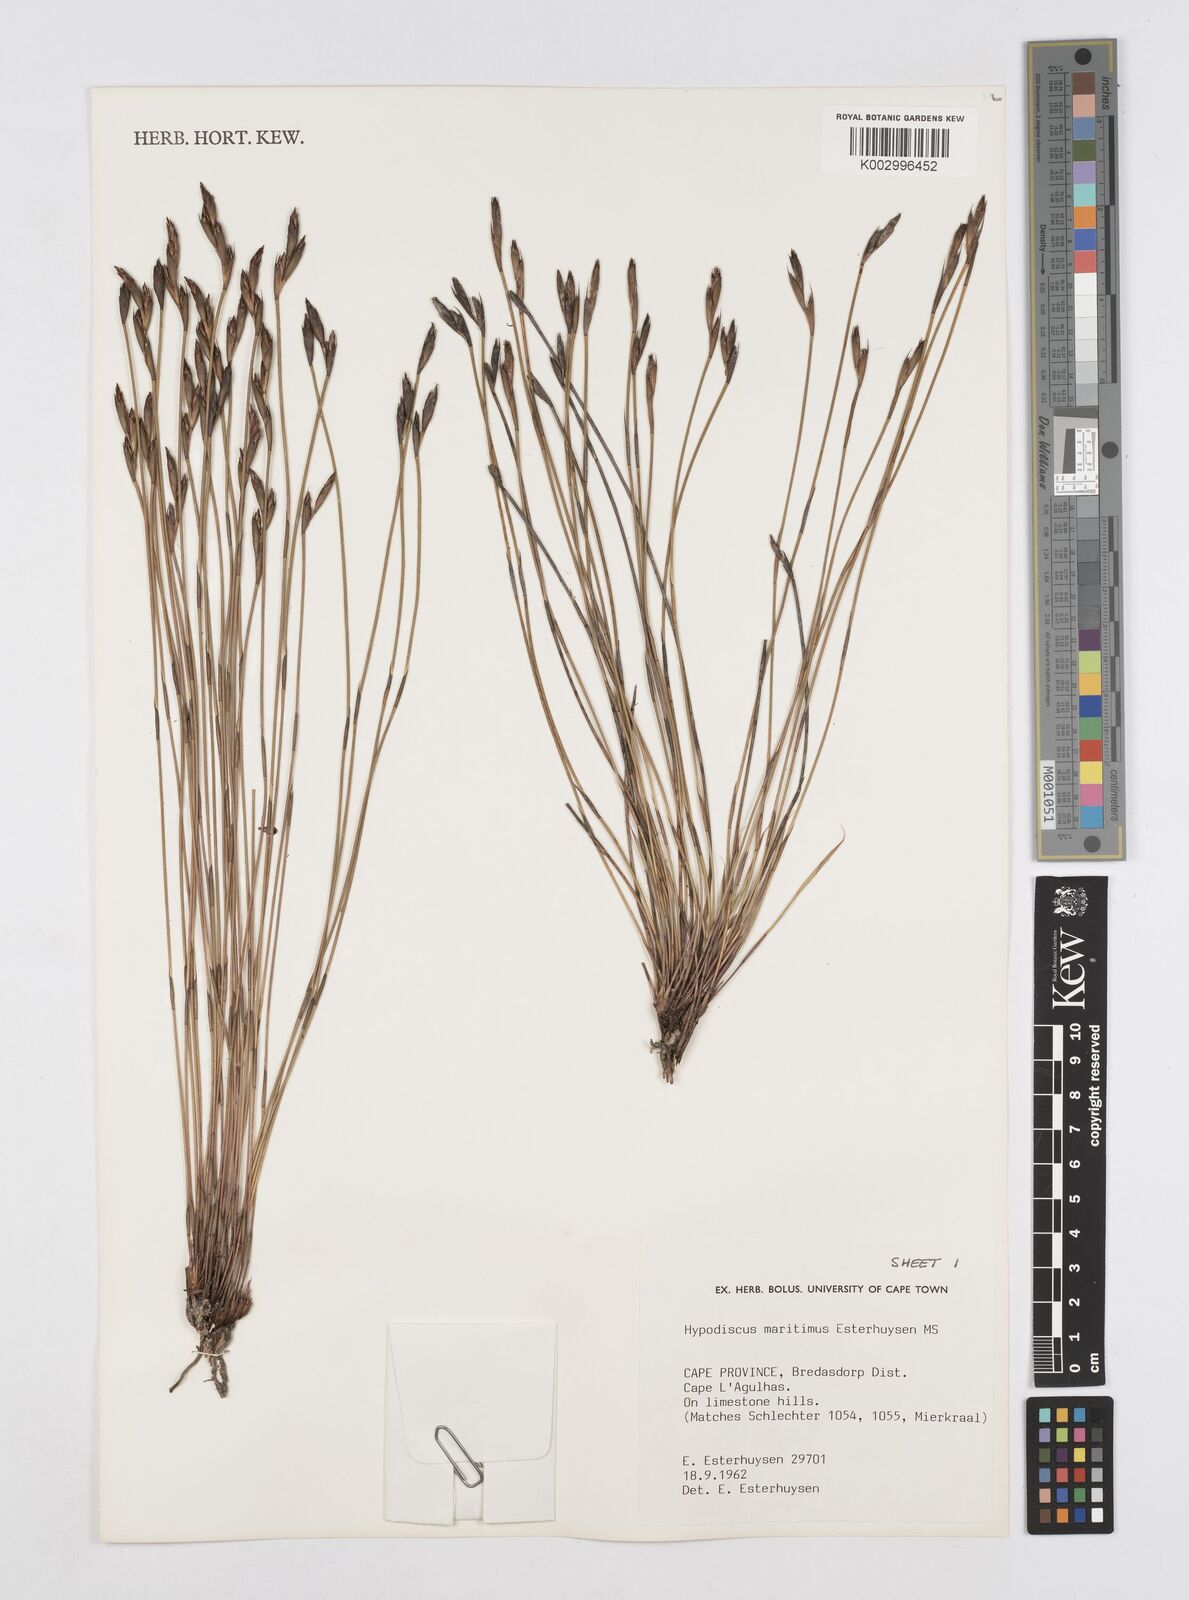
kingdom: Plantae
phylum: Tracheophyta
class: Liliopsida
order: Poales
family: Restionaceae
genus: Hypodiscus
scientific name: Hypodiscus
